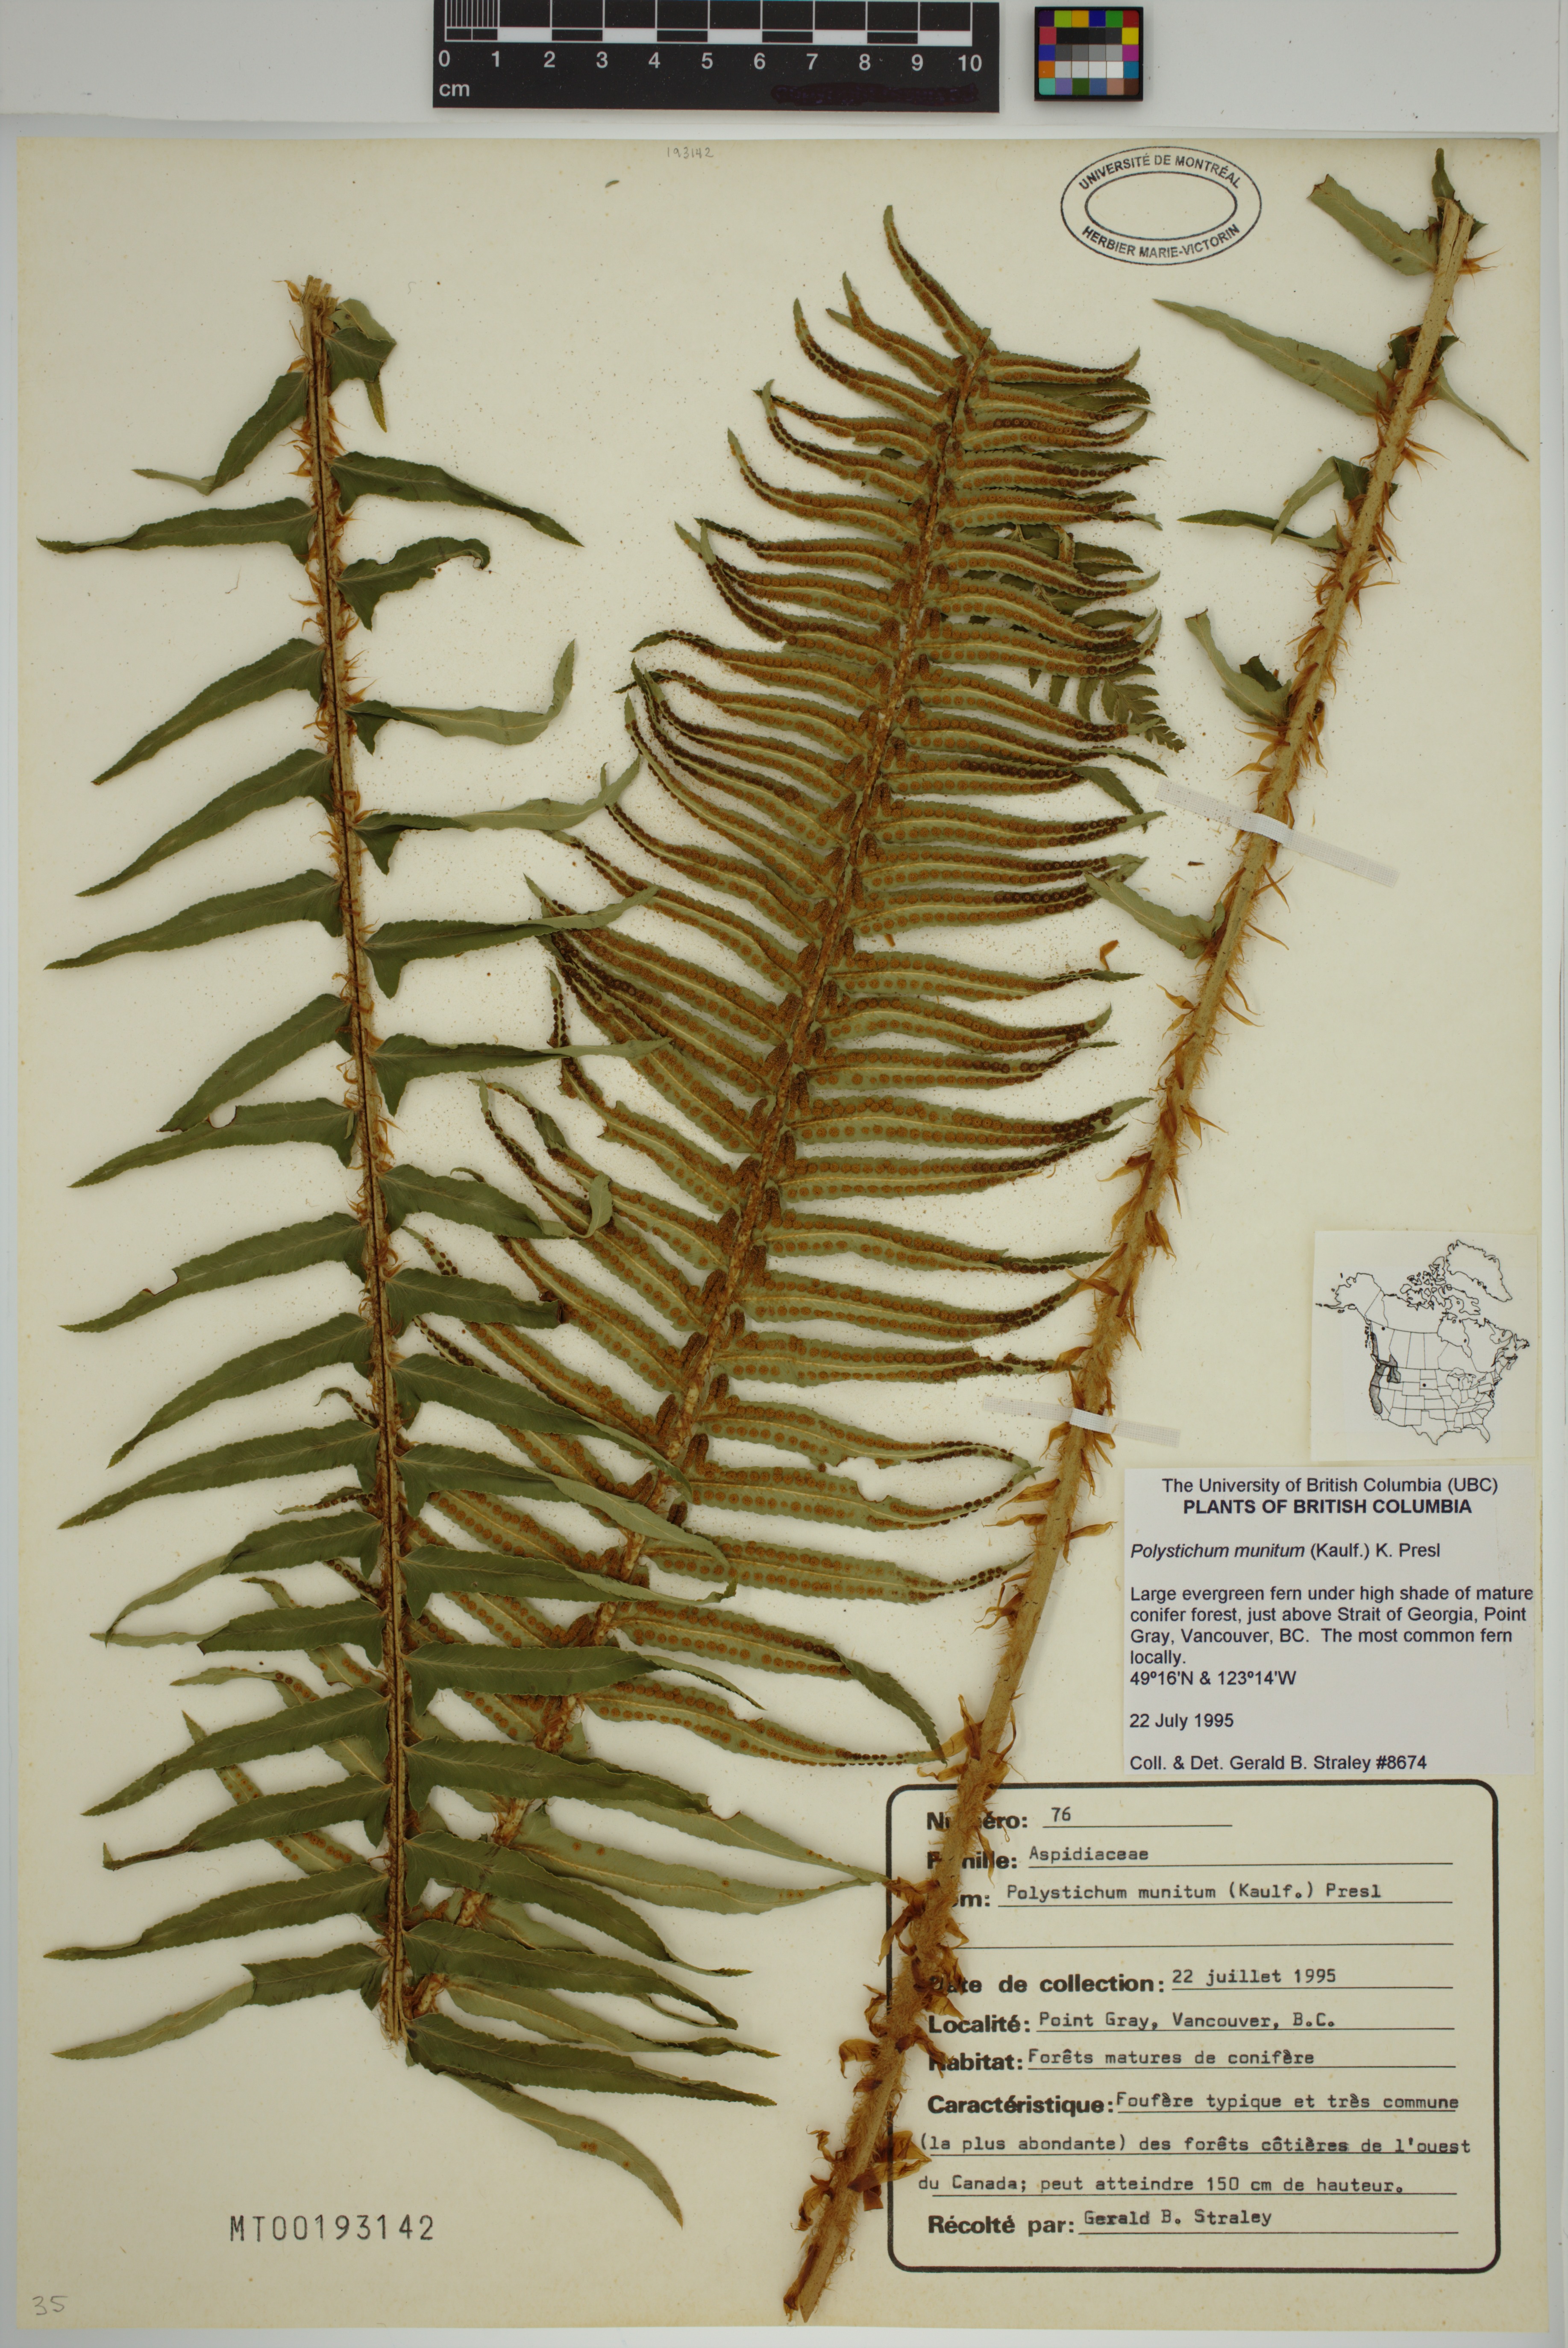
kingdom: Plantae
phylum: Tracheophyta
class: Polypodiopsida
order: Polypodiales
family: Dryopteridaceae
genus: Polystichum
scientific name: Polystichum munitum
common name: Western sword-fern
